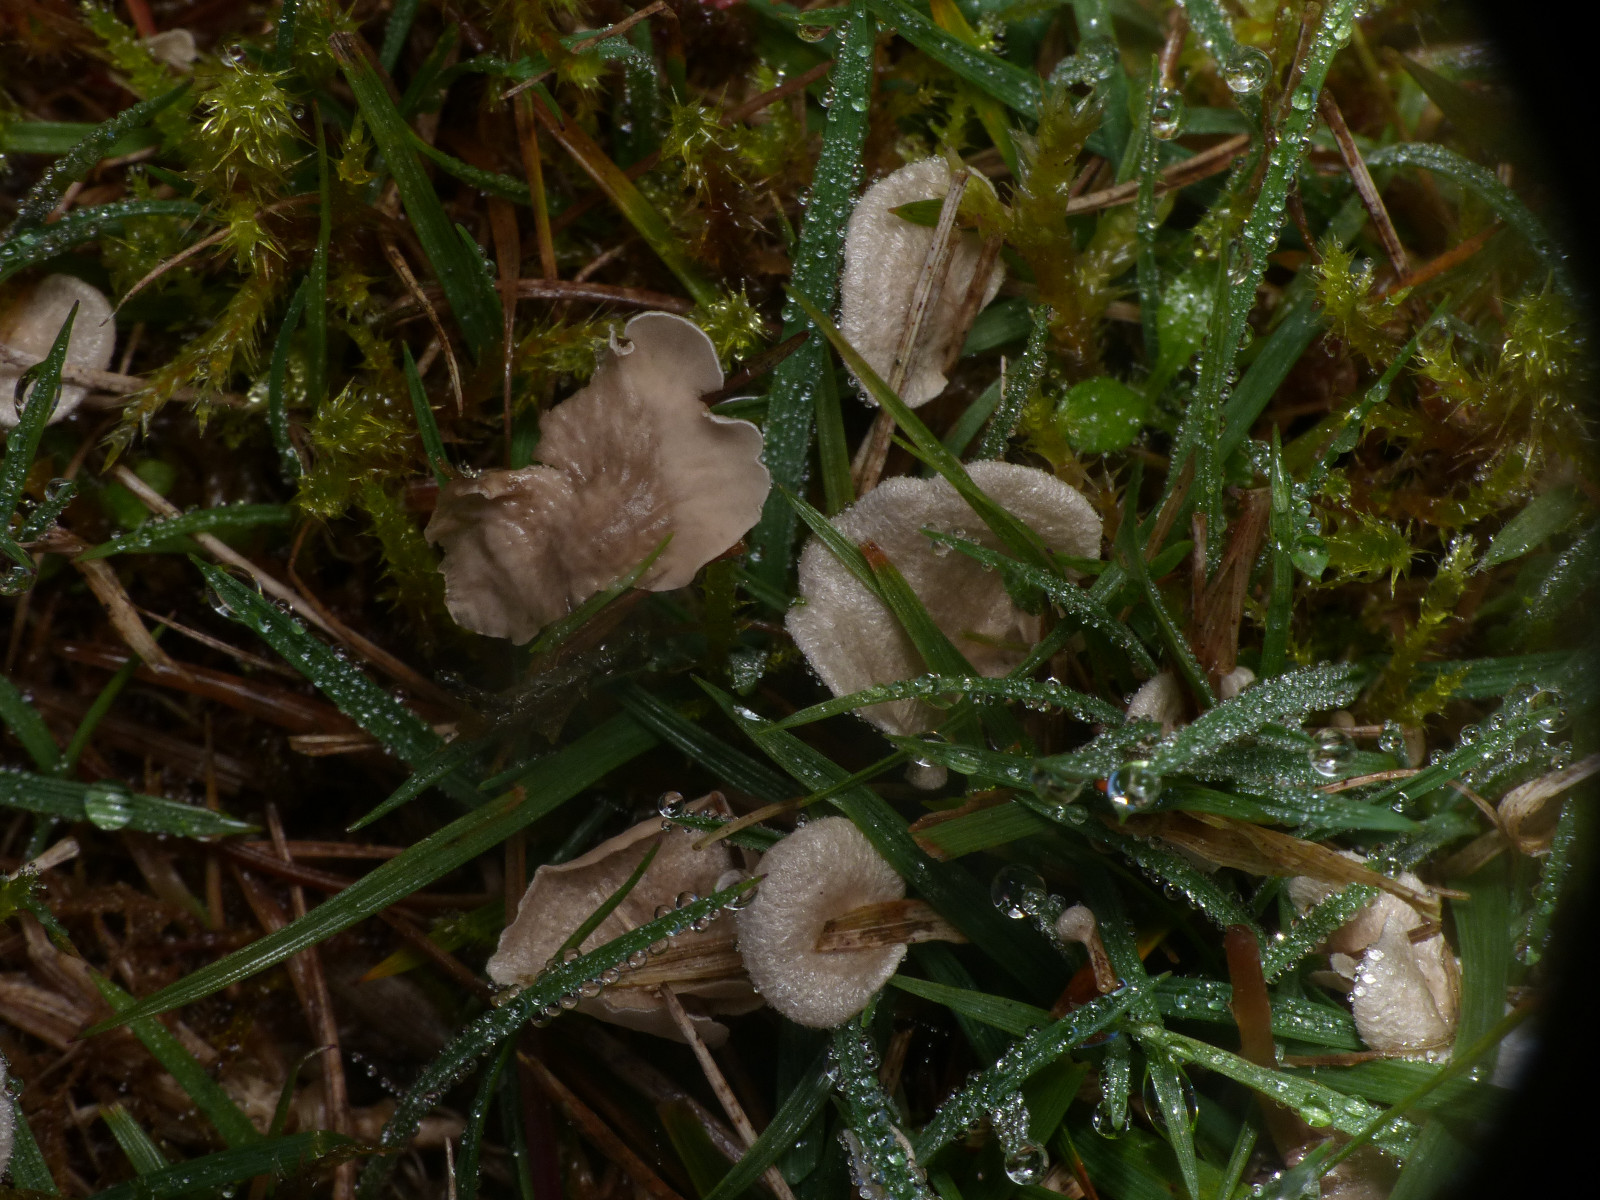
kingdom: Fungi
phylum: Basidiomycota
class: Agaricomycetes
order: Agaricales
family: Hygrophoraceae
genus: Arrhenia
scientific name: Arrhenia retiruga
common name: lille fontænehat
